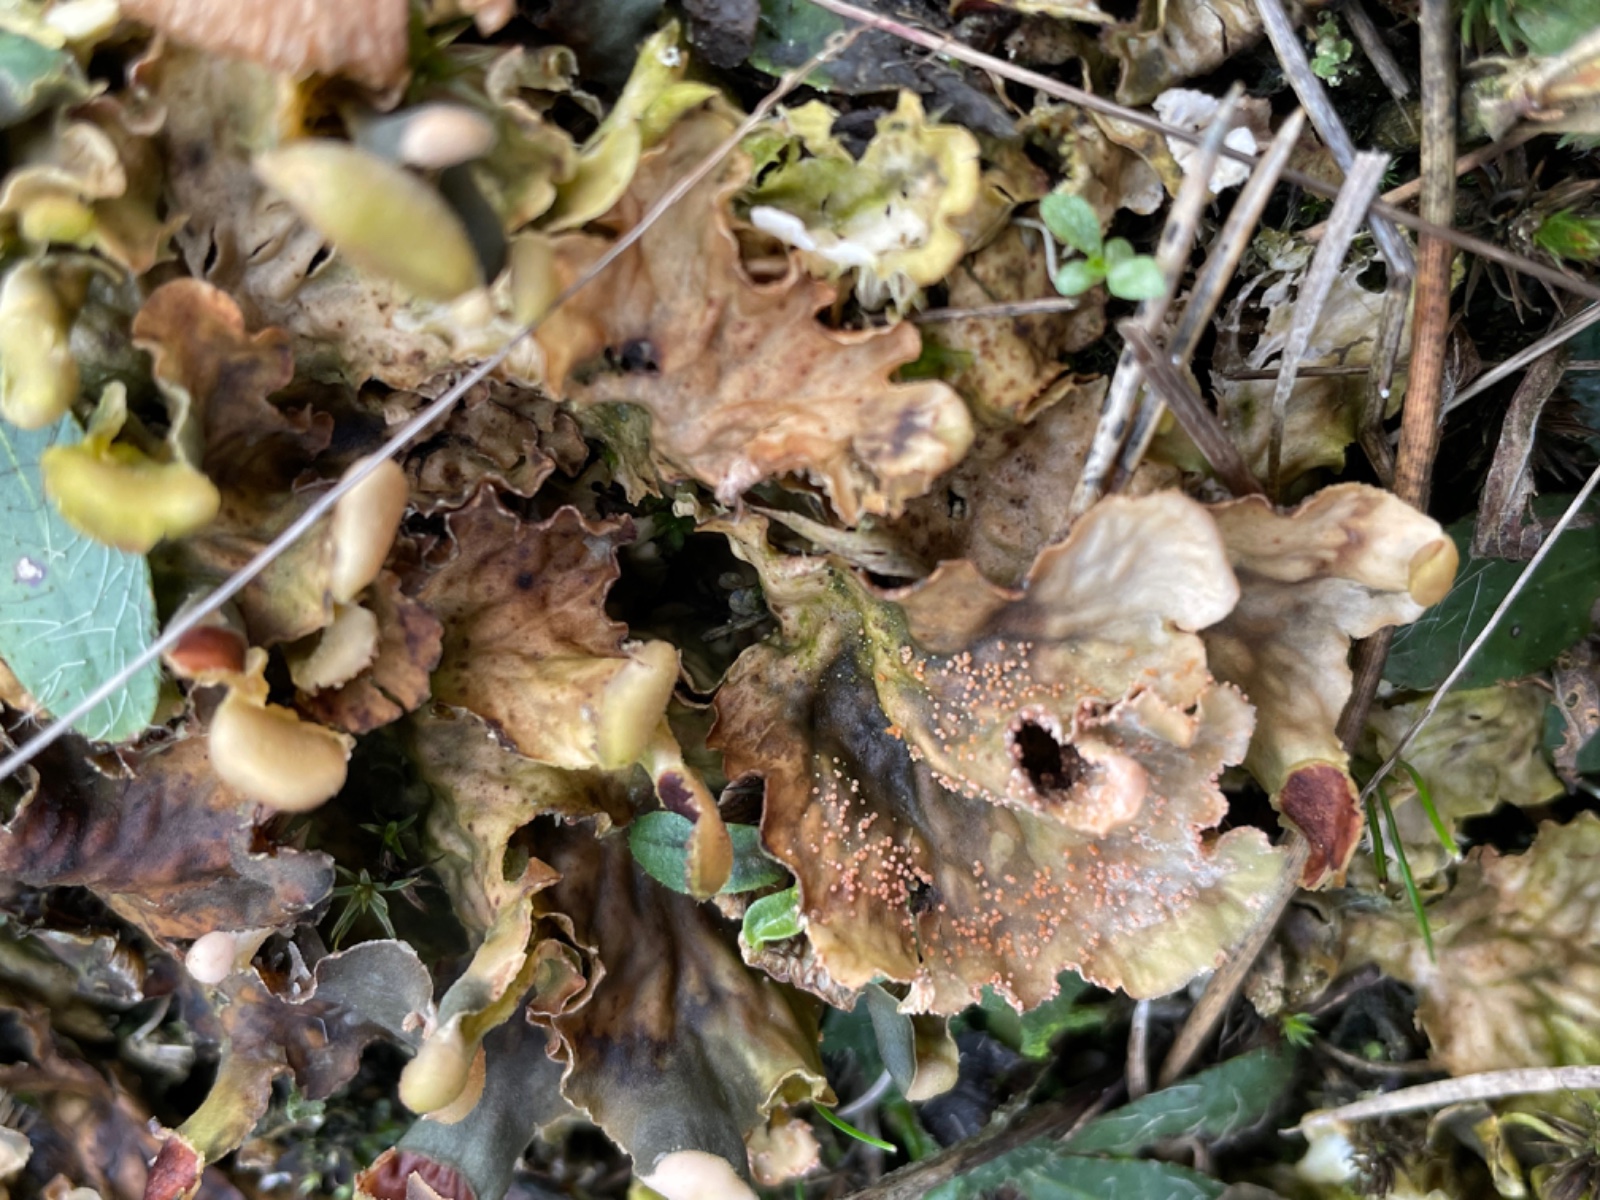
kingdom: Fungi
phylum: Ascomycota
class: Sordariomycetes
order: Hypocreales
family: Bionectriaceae
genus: Nectriopsis
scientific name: Nectriopsis lecanodes
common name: skjoldlav-gyldenkerne
